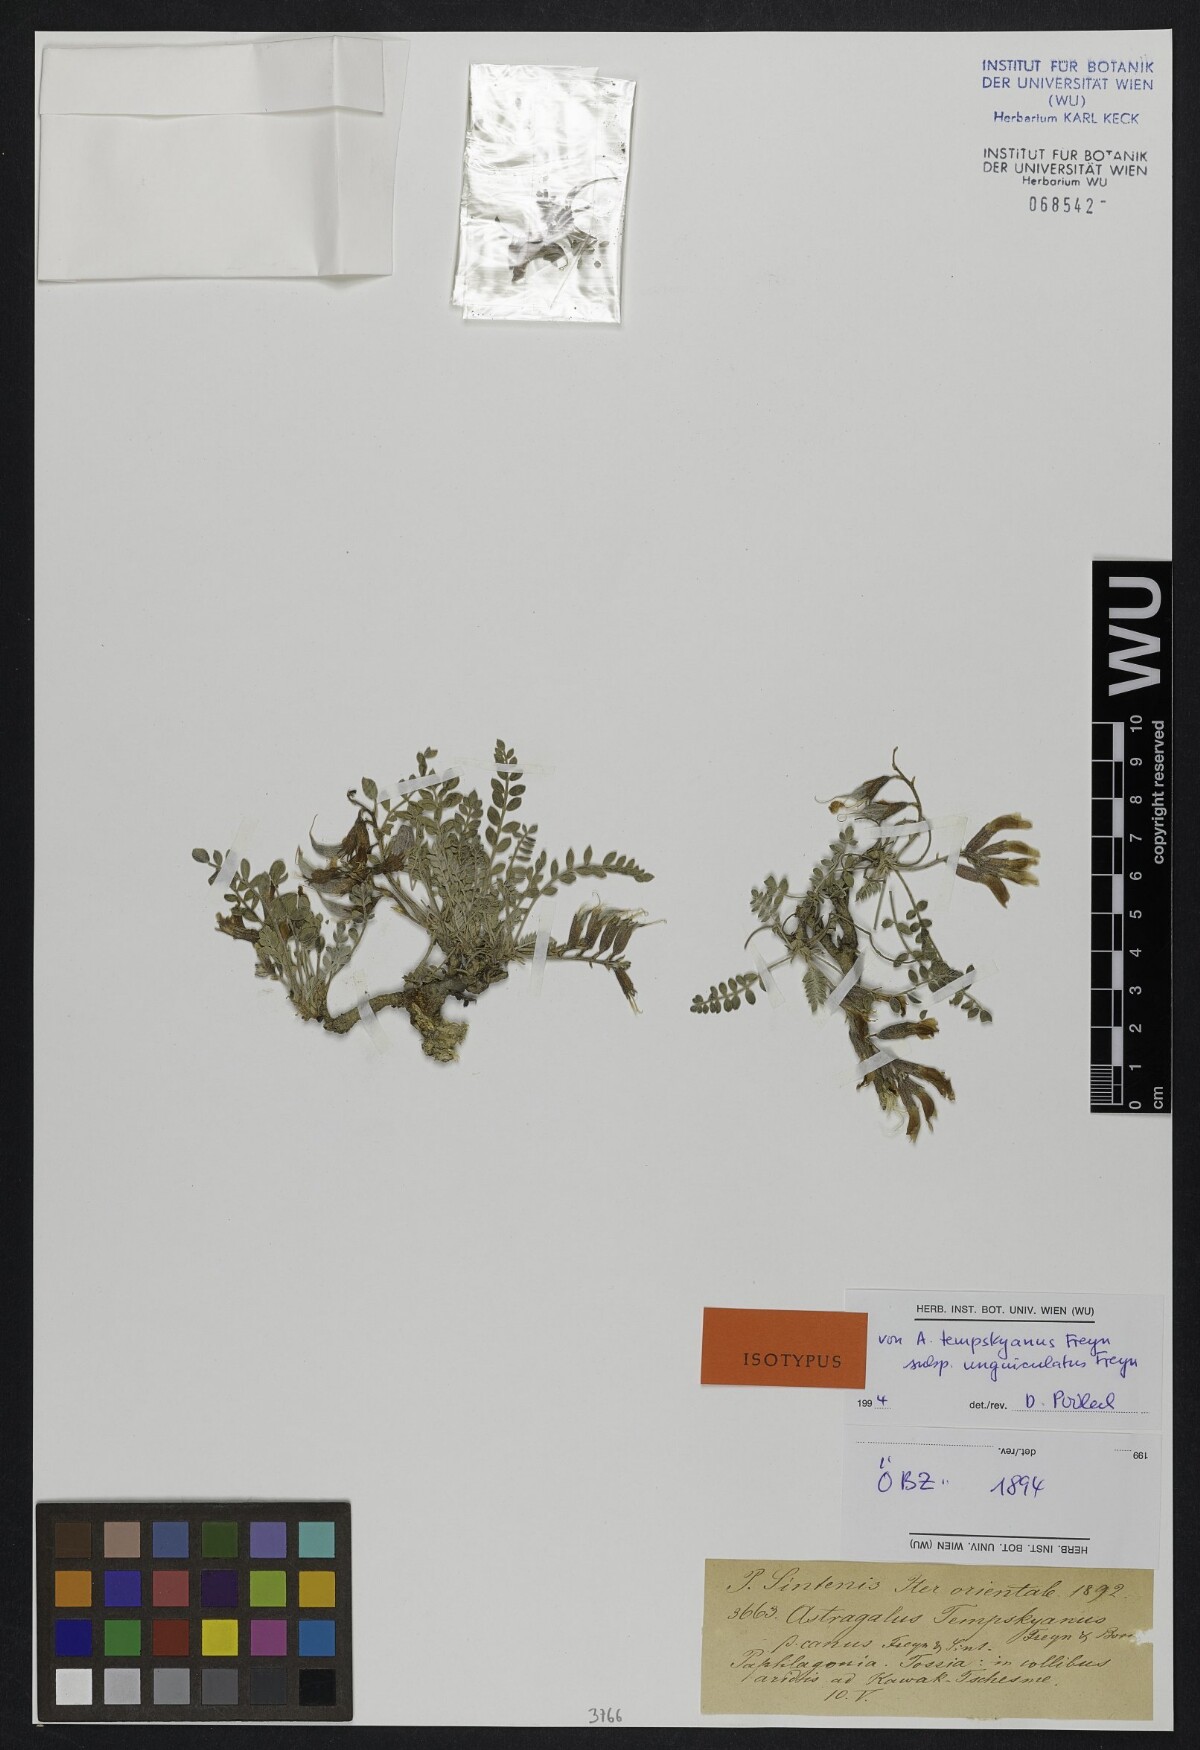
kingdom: Plantae
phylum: Tracheophyta
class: Magnoliopsida
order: Fabales
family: Fabaceae
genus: Astragalus
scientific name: Astragalus spruneri
